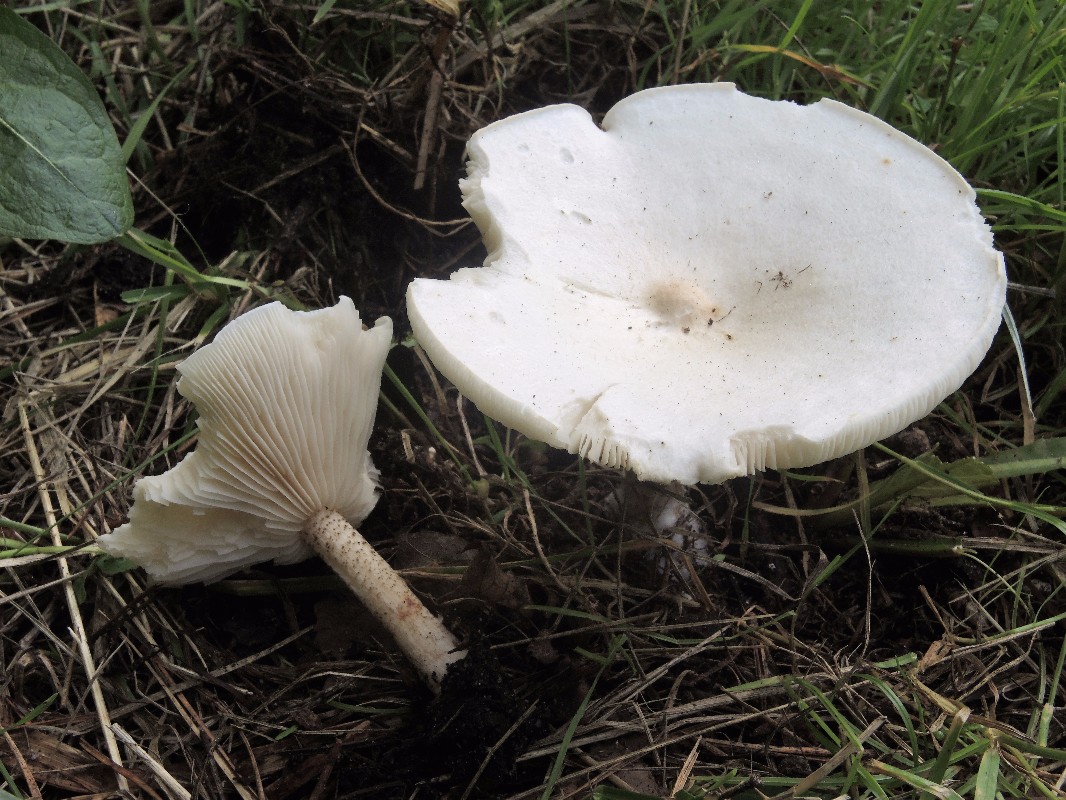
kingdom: Fungi
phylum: Basidiomycota
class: Agaricomycetes
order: Agaricales
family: Tricholomataceae
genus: Melanoleuca
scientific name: Melanoleuca verrucipes
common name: rufodet munkehat
